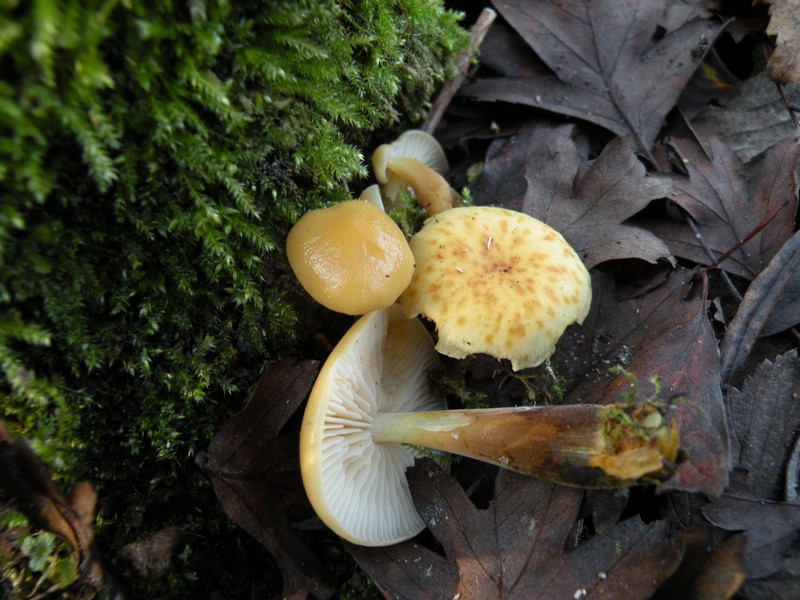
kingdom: Fungi
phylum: Basidiomycota
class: Agaricomycetes
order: Agaricales
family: Physalacriaceae
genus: Flammulina
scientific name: Flammulina elastica
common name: pile-fløjlsfod
